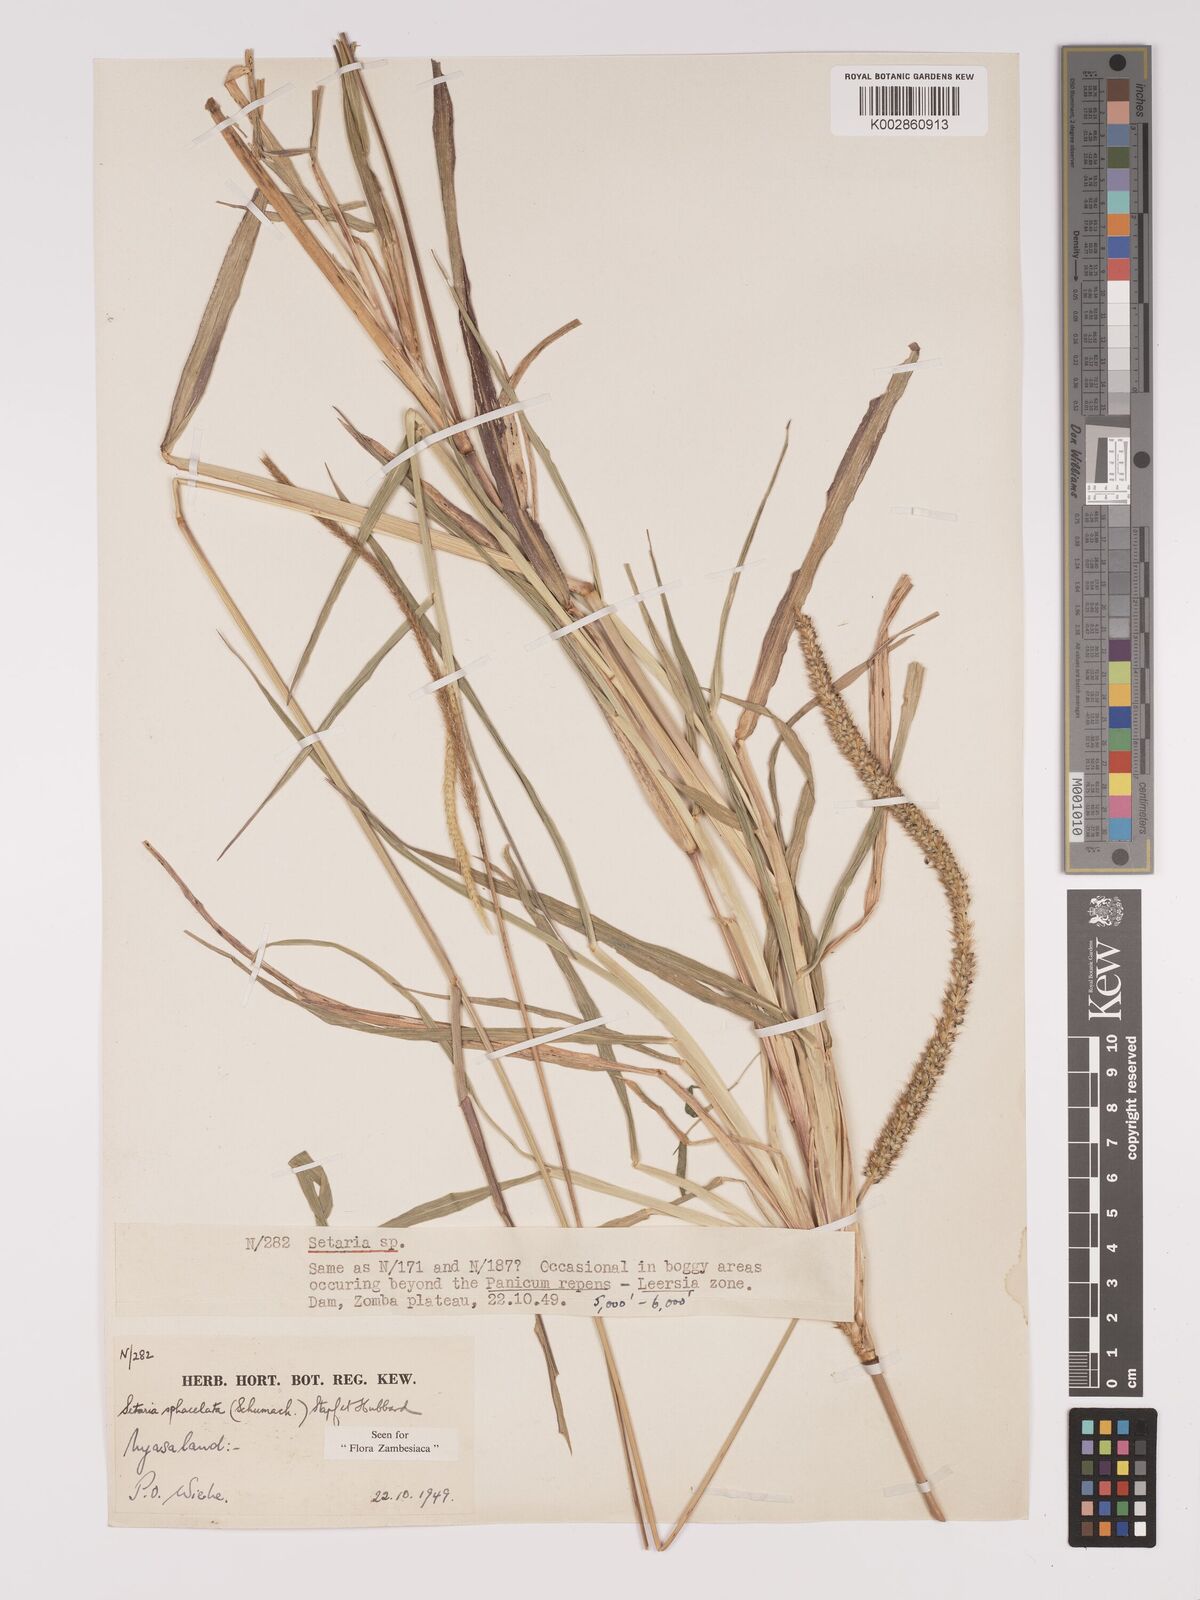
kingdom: Plantae
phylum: Tracheophyta
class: Liliopsida
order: Poales
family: Poaceae
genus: Setaria
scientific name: Setaria sphacelata
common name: African bristlegrass
